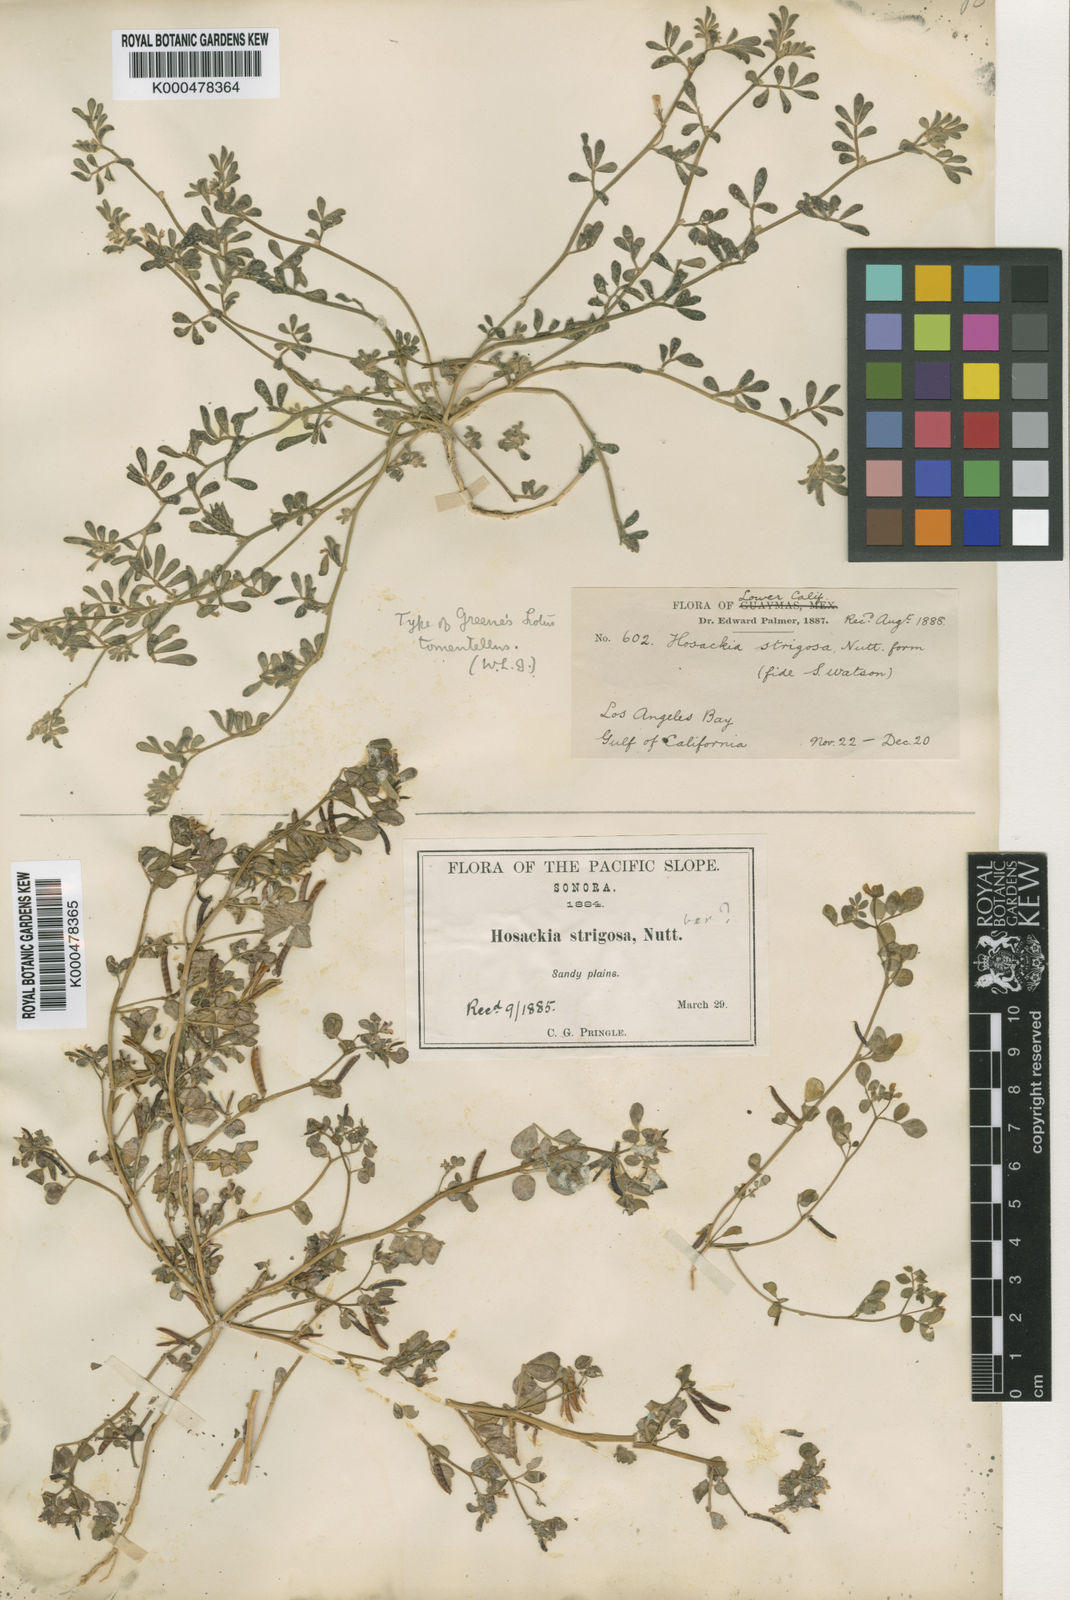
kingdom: Plantae
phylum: Tracheophyta
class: Magnoliopsida
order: Fabales
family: Fabaceae
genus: Acmispon
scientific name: Acmispon strigosus
